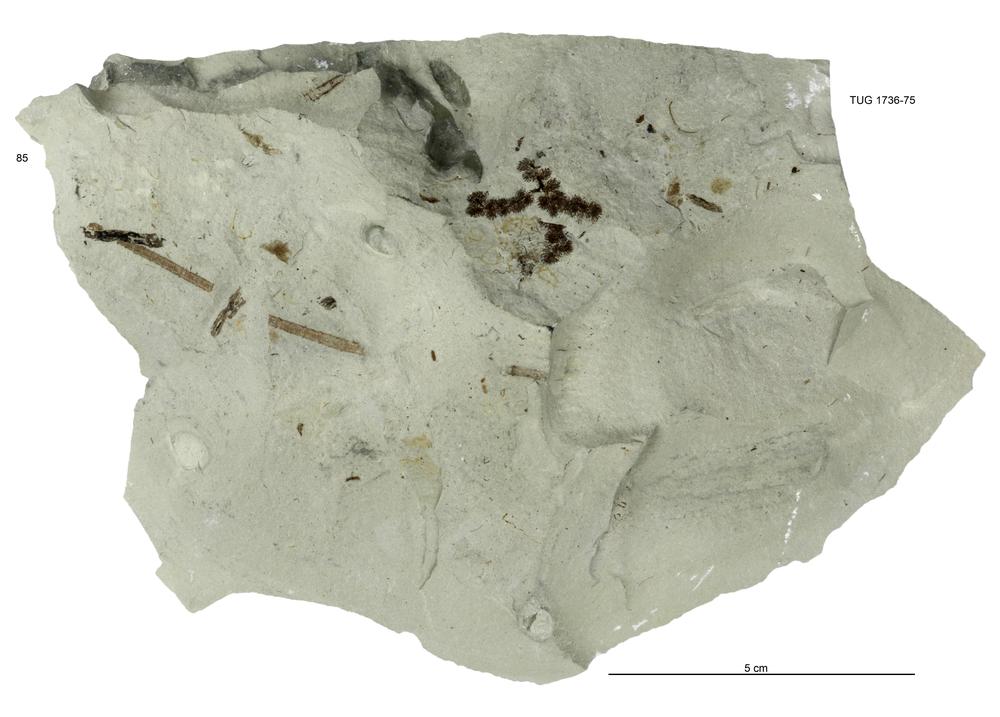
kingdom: Animalia
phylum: Echinodermata
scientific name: Echinodermata
